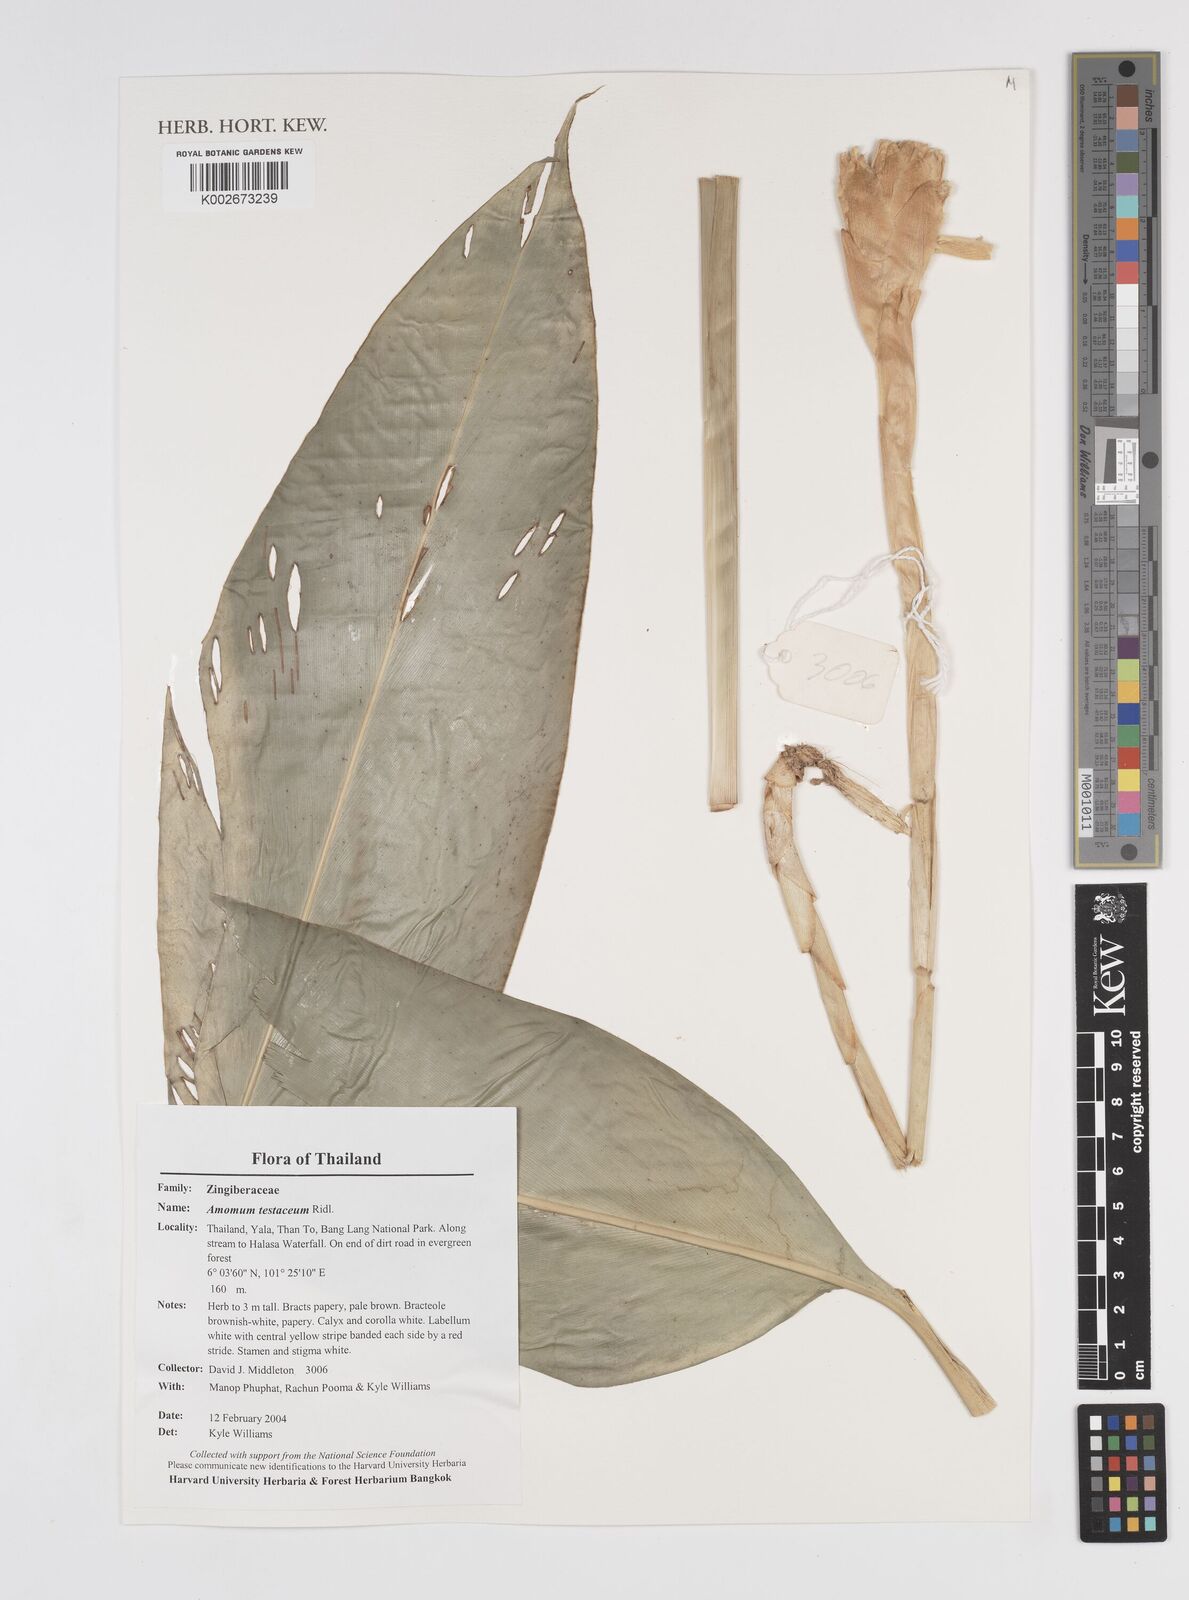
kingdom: Plantae
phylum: Tracheophyta
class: Liliopsida
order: Zingiberales
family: Zingiberaceae
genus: Wurfbainia
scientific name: Wurfbainia testacea
